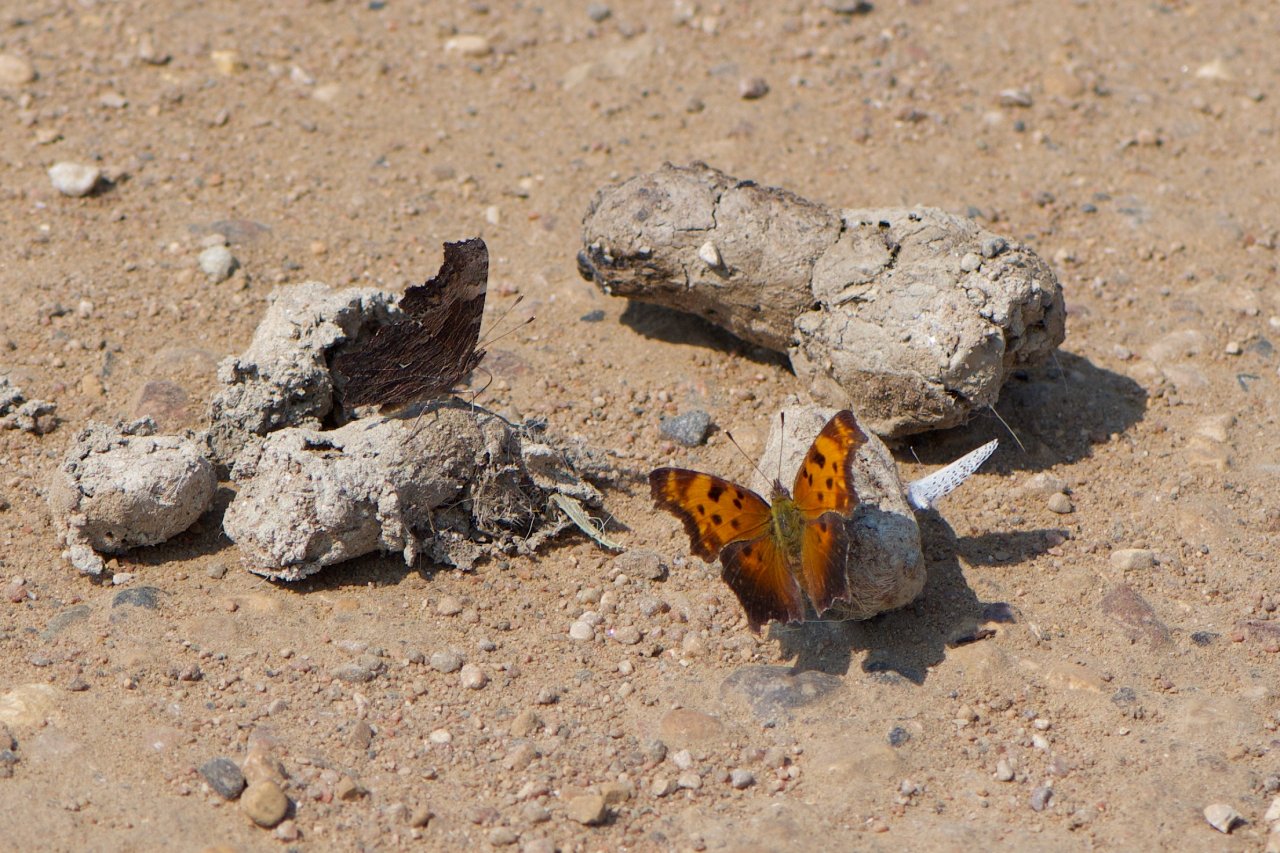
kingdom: Animalia
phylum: Arthropoda
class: Insecta
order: Lepidoptera
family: Nymphalidae
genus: Polygonia
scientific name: Polygonia progne
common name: Gray Comma
